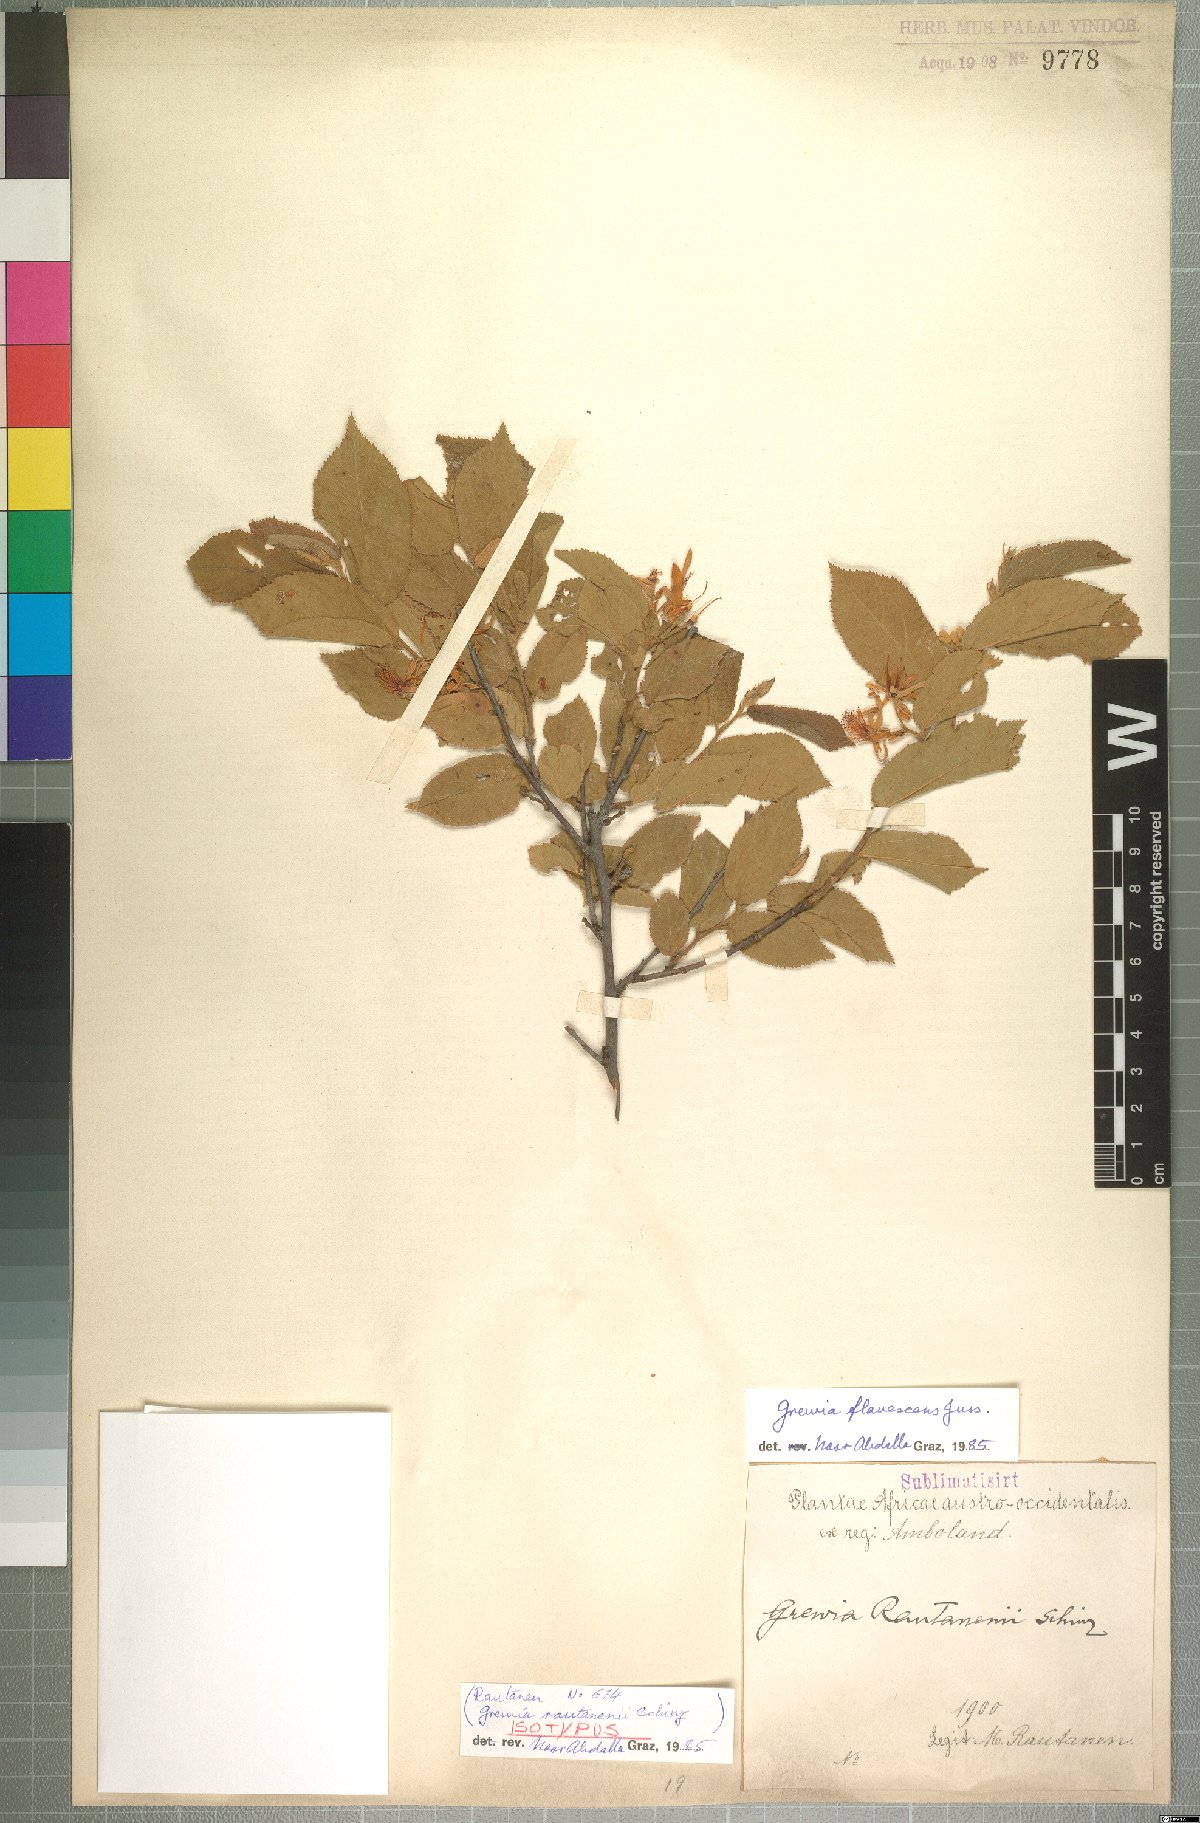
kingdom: Plantae
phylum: Tracheophyta
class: Magnoliopsida
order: Malvales
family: Malvaceae
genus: Grewia
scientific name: Grewia flavescens
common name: Sandpaper raisin
